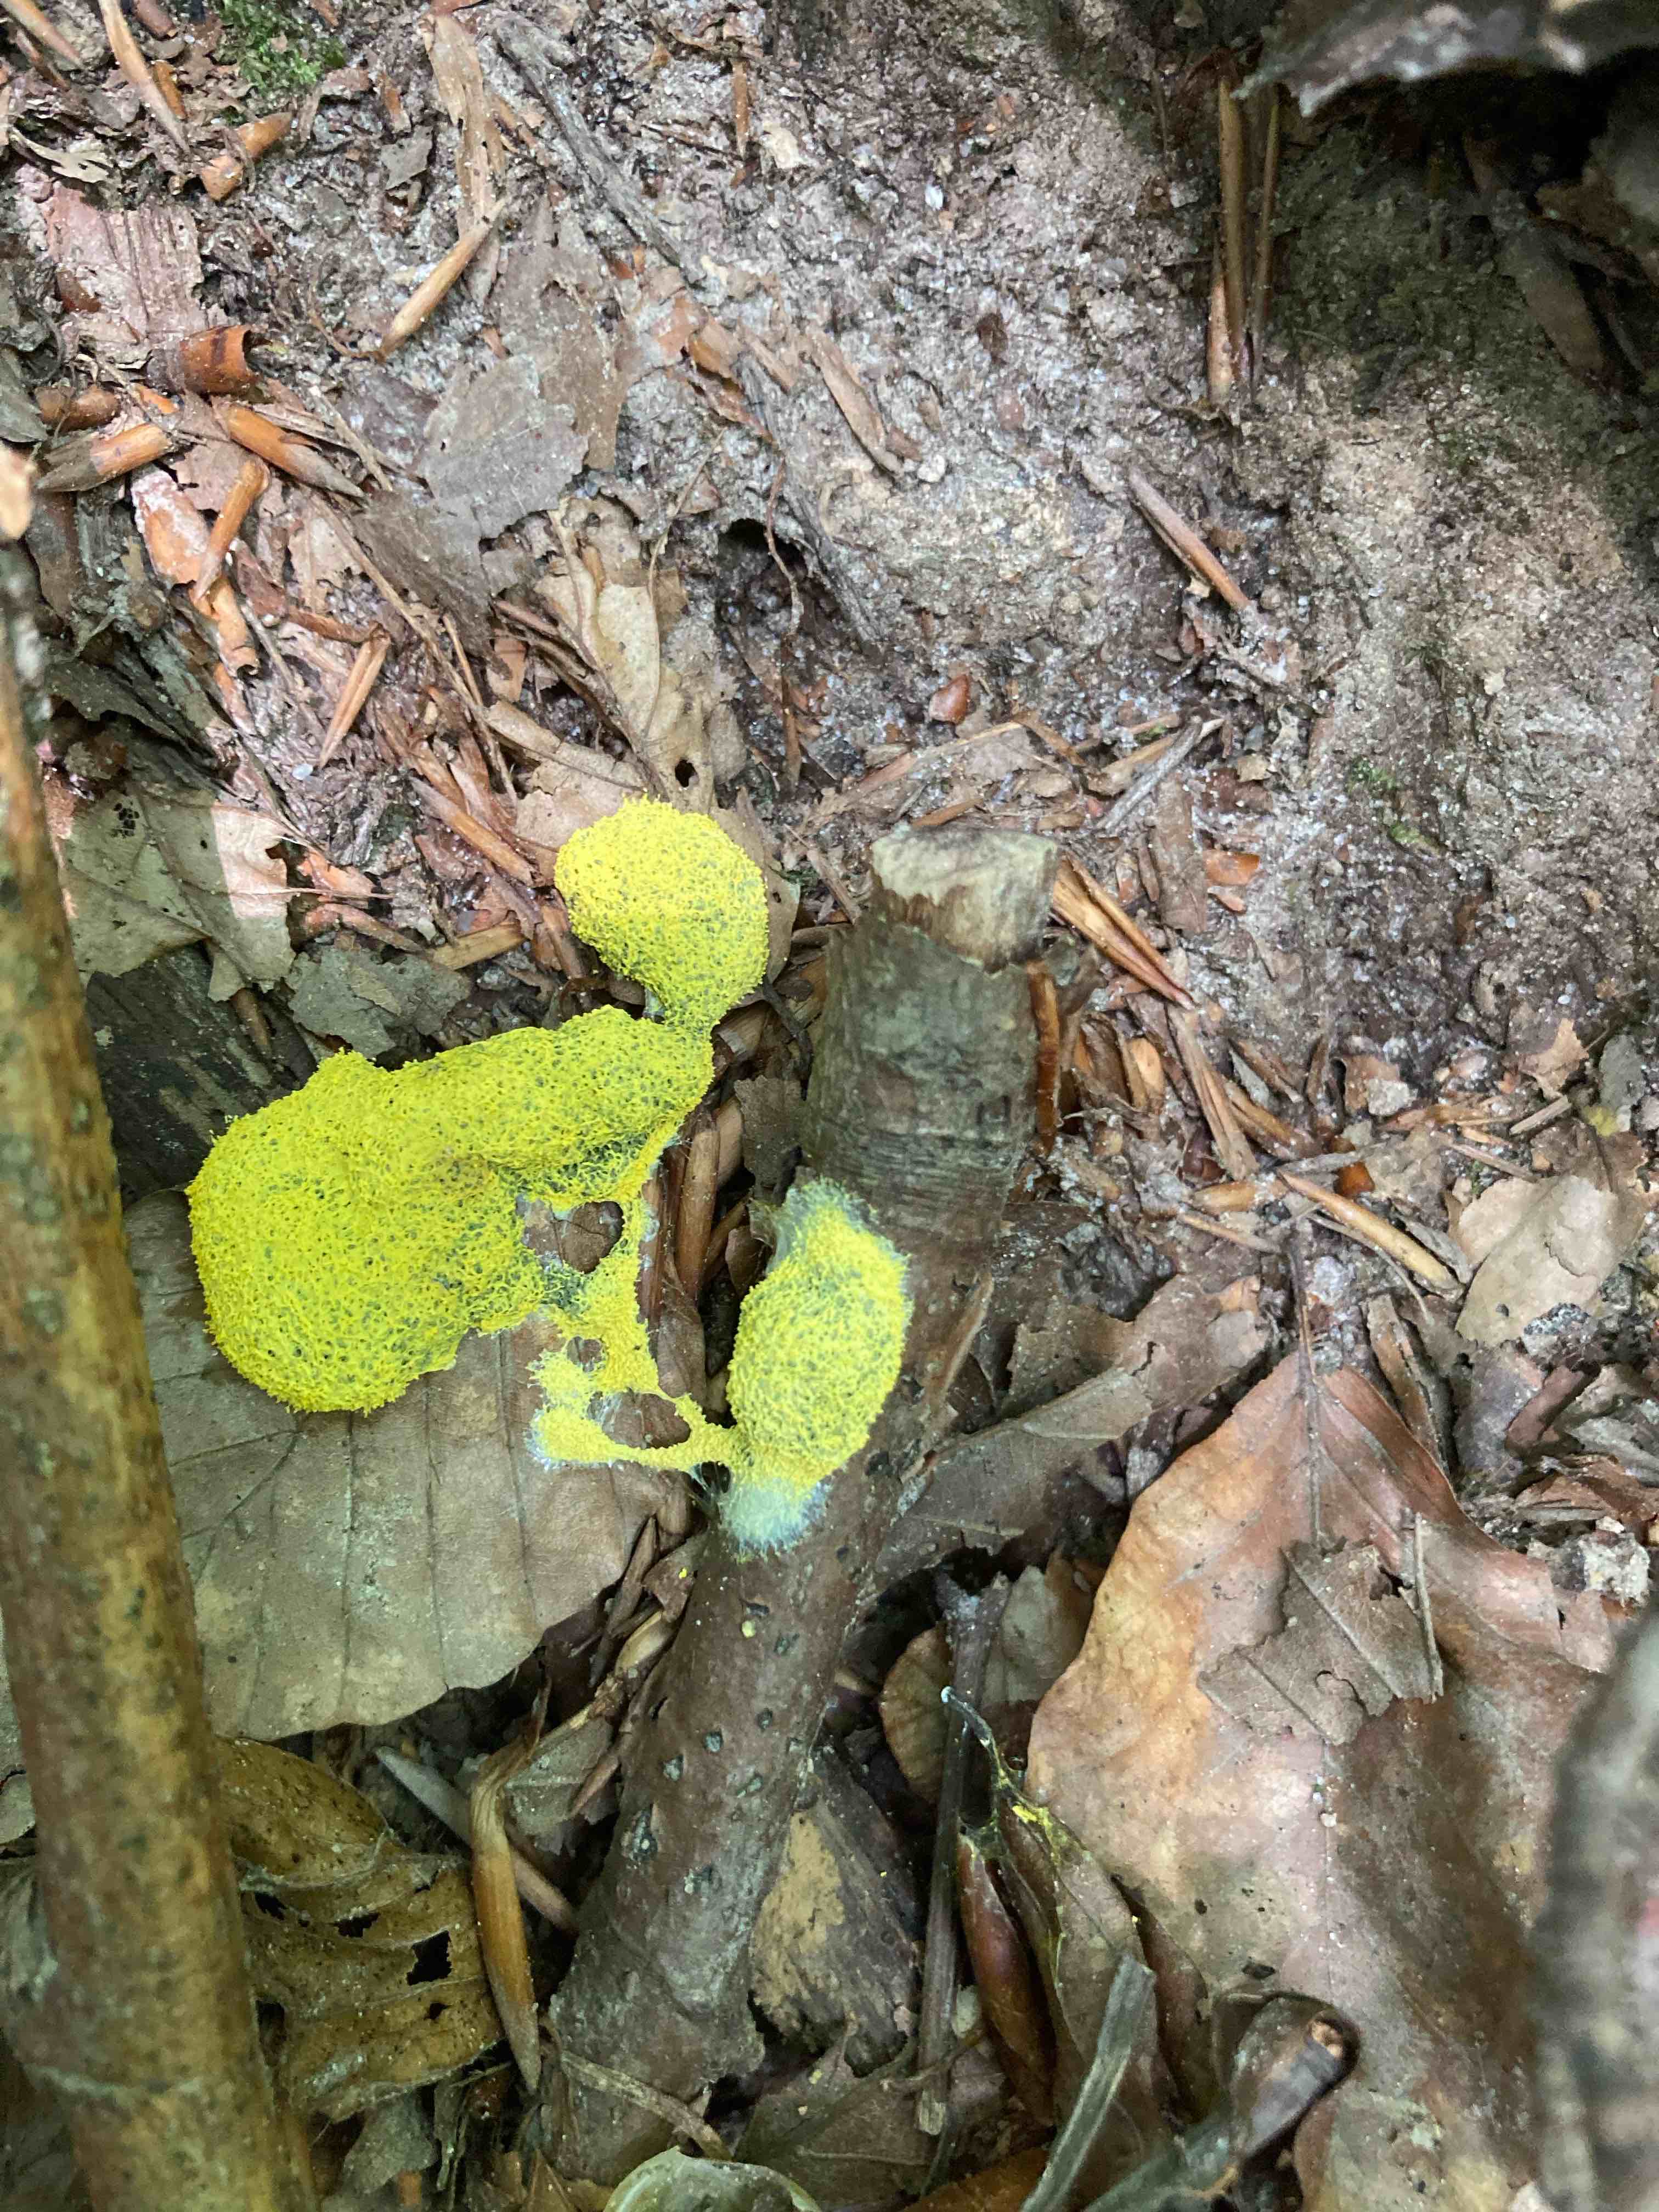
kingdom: Protozoa
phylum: Mycetozoa
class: Myxomycetes
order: Physarales
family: Physaraceae
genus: Fuligo
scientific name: Fuligo septica
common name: gul troldsmør
